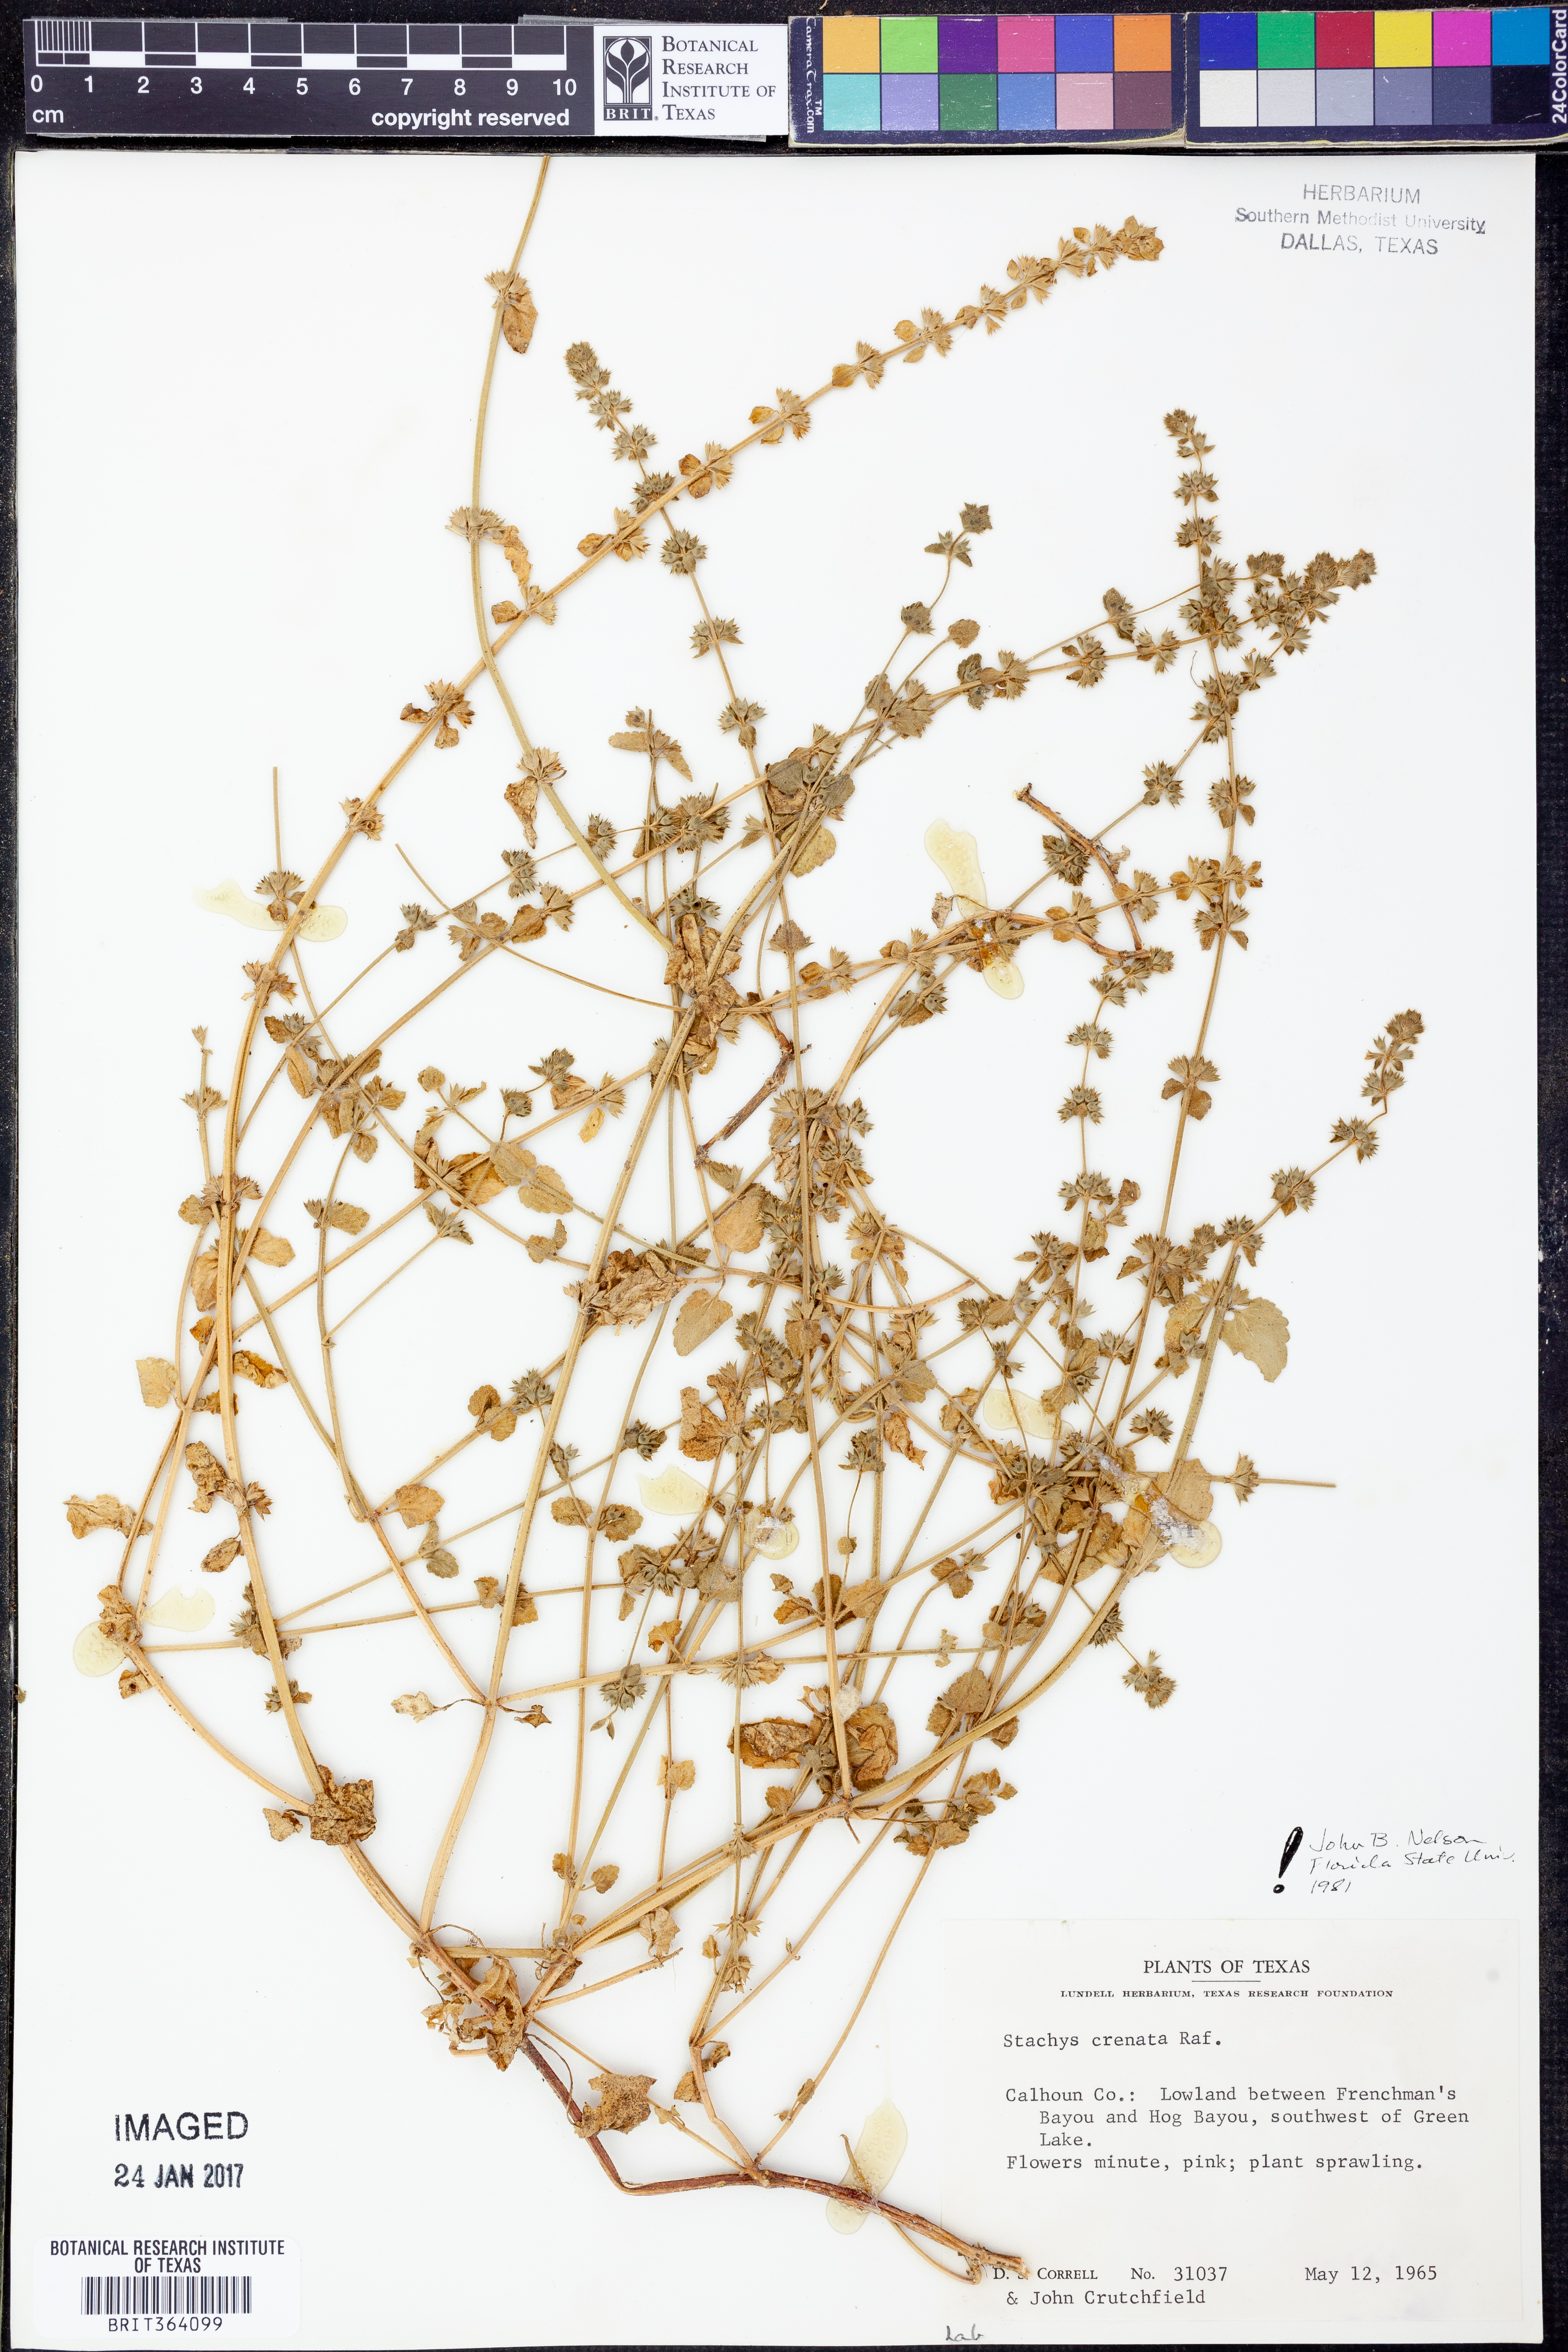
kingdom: Plantae
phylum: Tracheophyta
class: Magnoliopsida
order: Lamiales
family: Lamiaceae
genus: Stachys
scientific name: Stachys agraria
